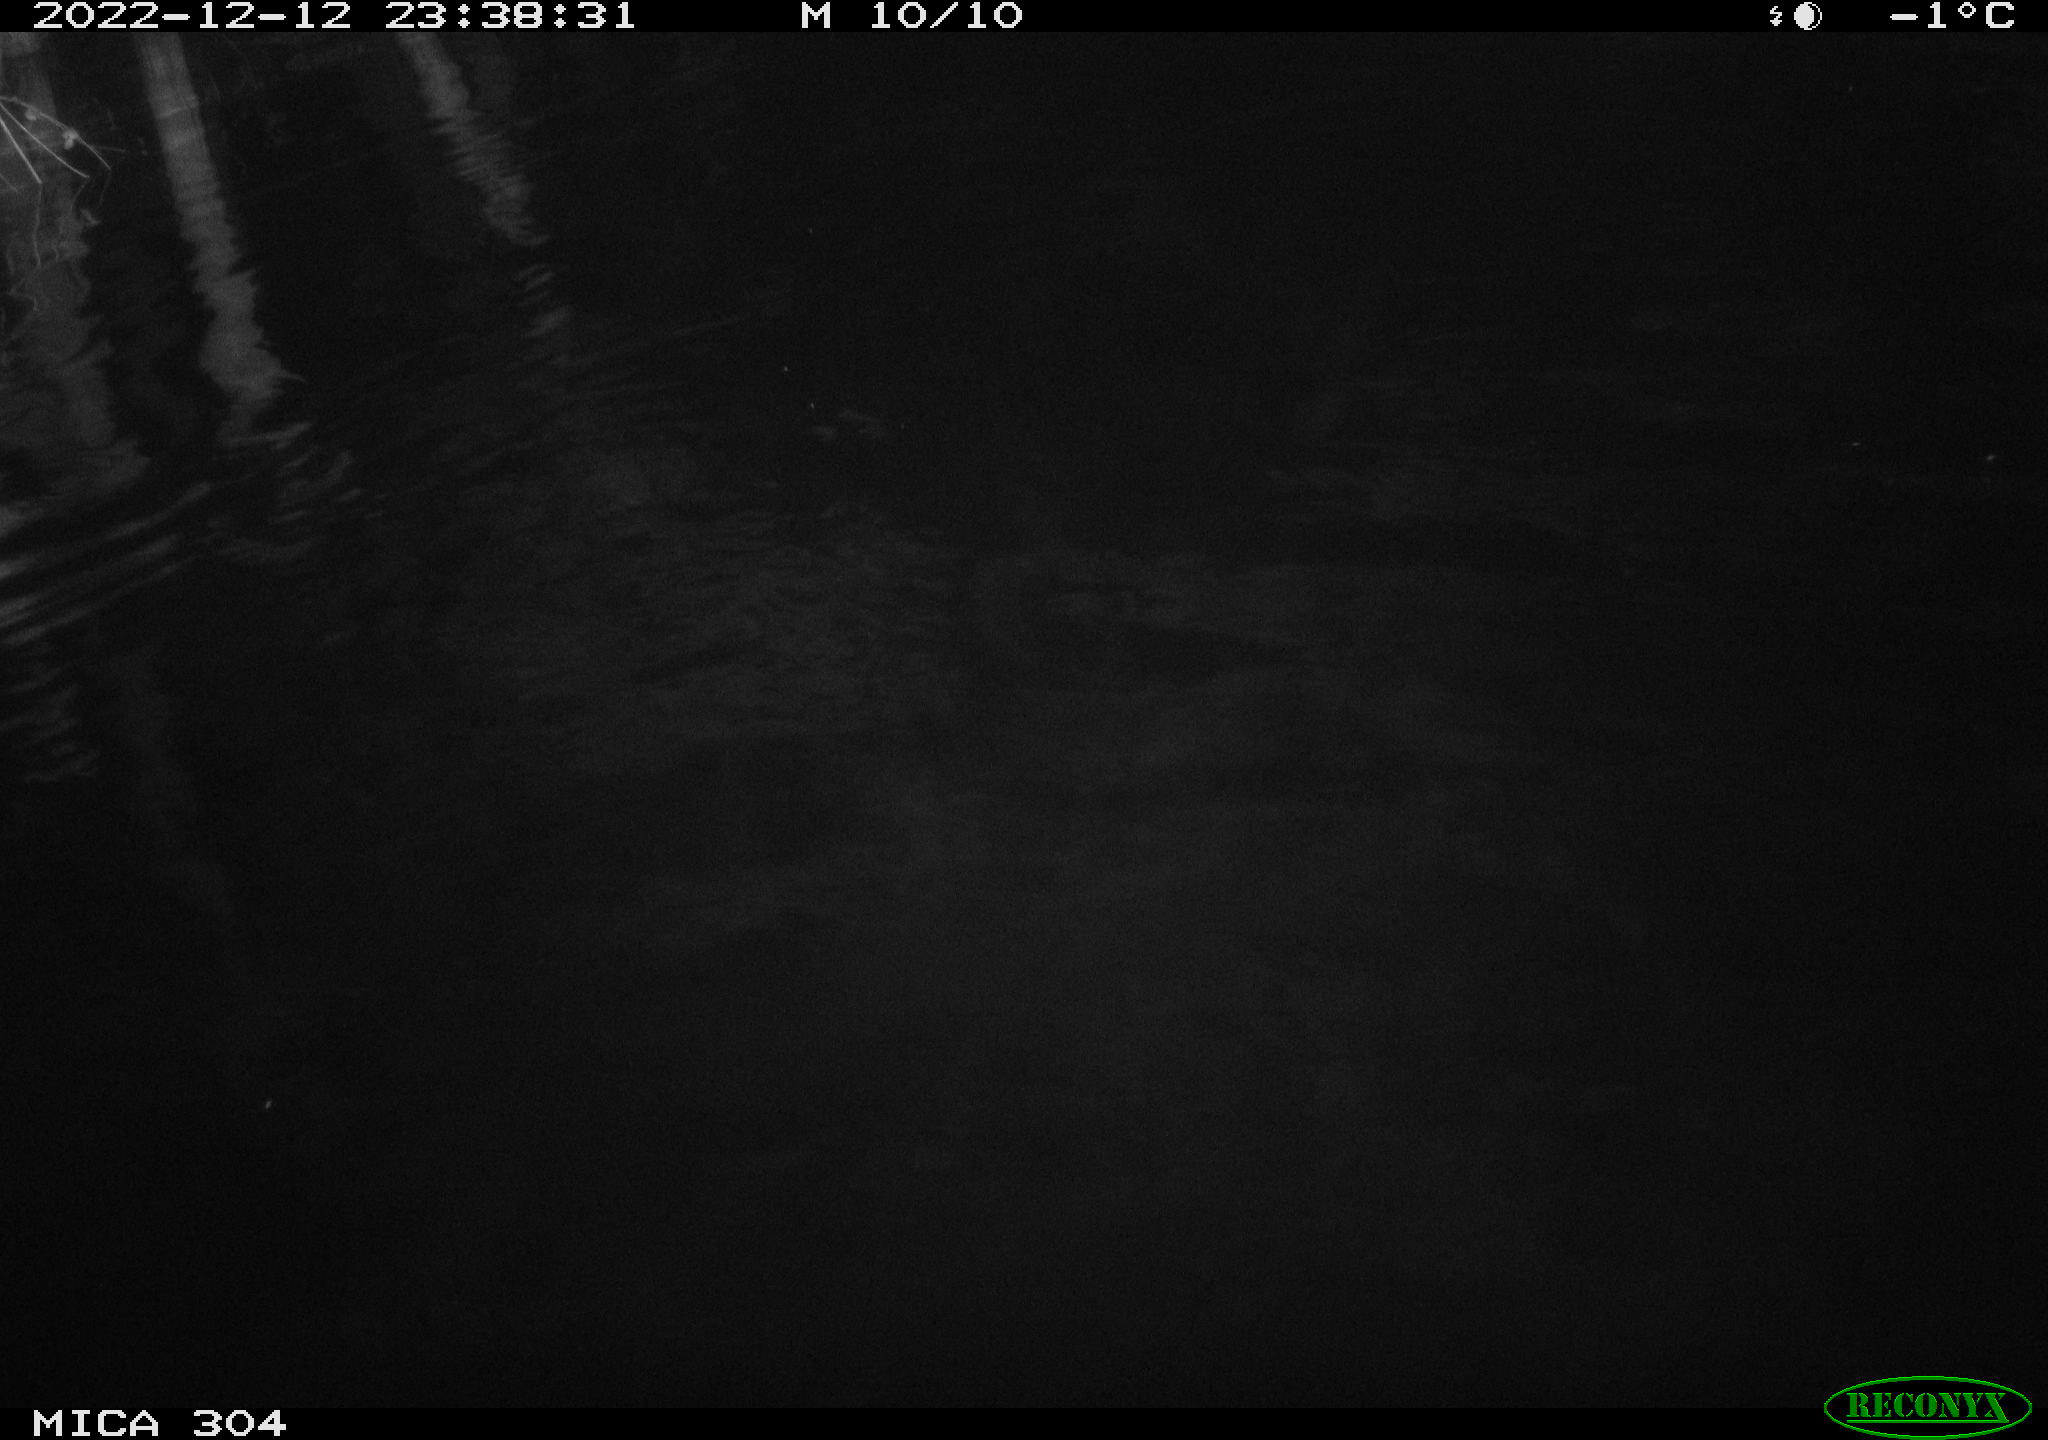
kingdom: Animalia
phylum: Chordata
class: Aves
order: Anseriformes
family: Anatidae
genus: Anas
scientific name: Anas
